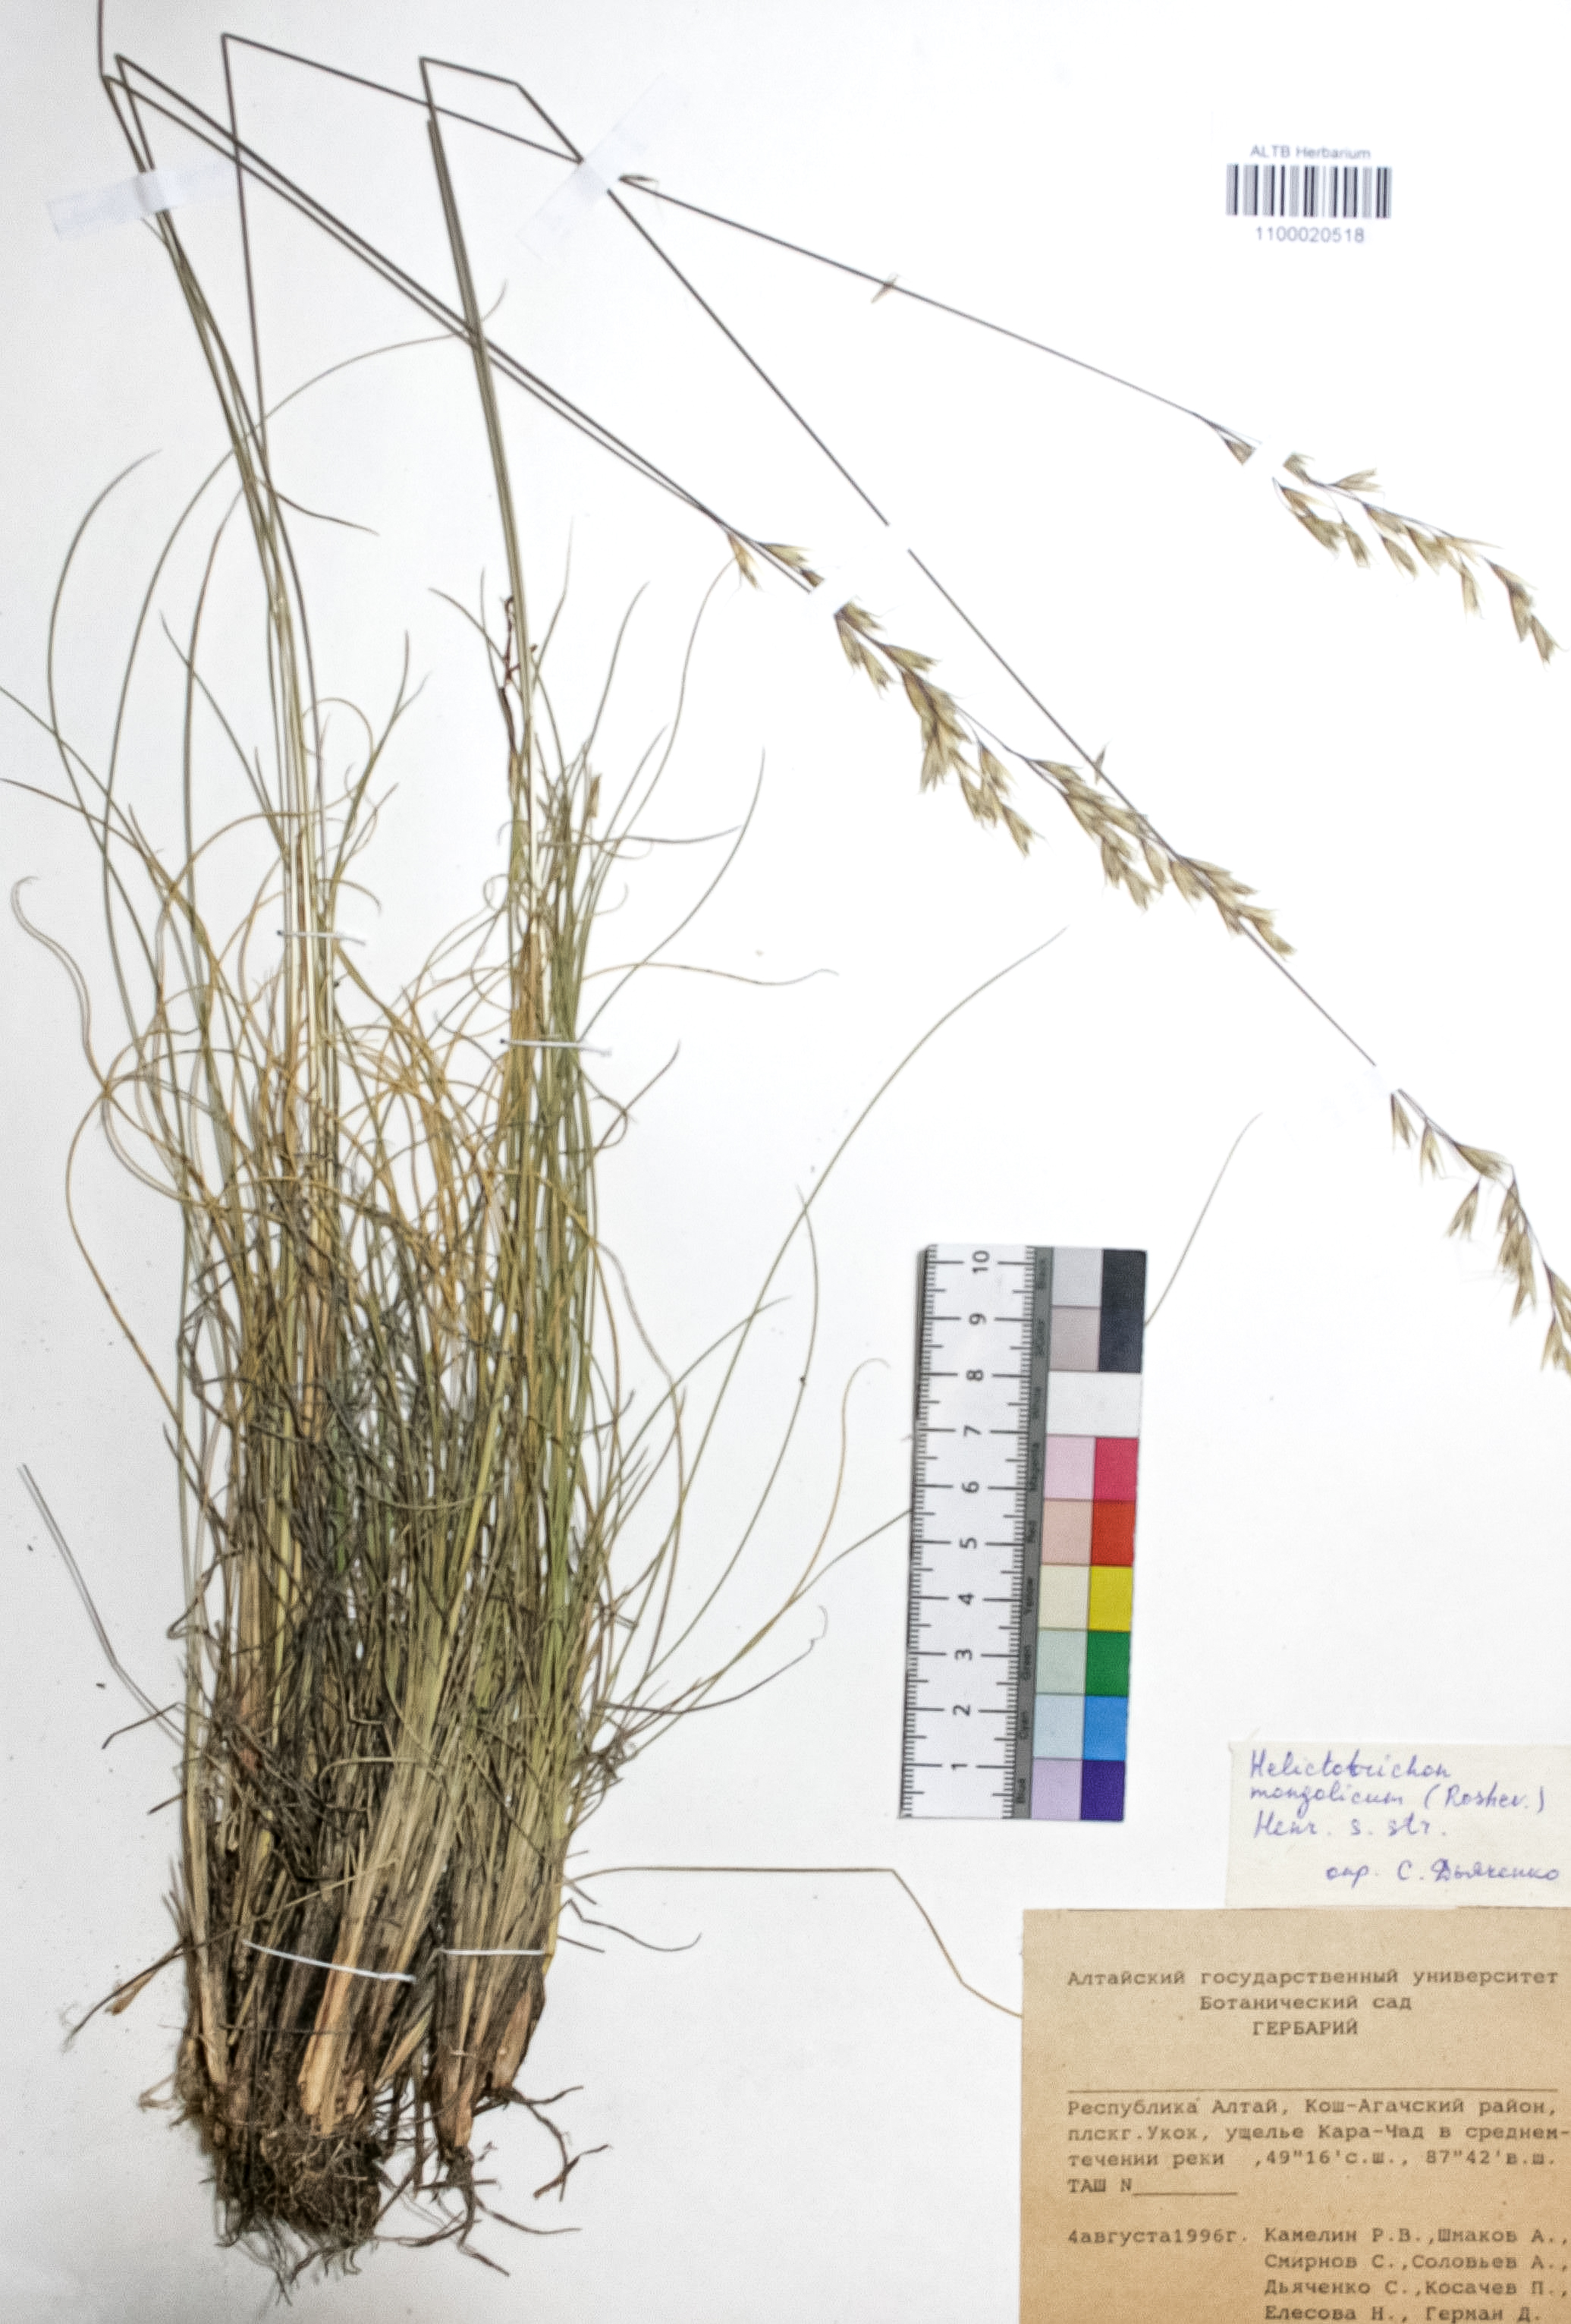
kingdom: Plantae
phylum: Tracheophyta
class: Liliopsida
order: Poales
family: Poaceae
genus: Helictotrichon
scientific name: Helictotrichon mongolicum
